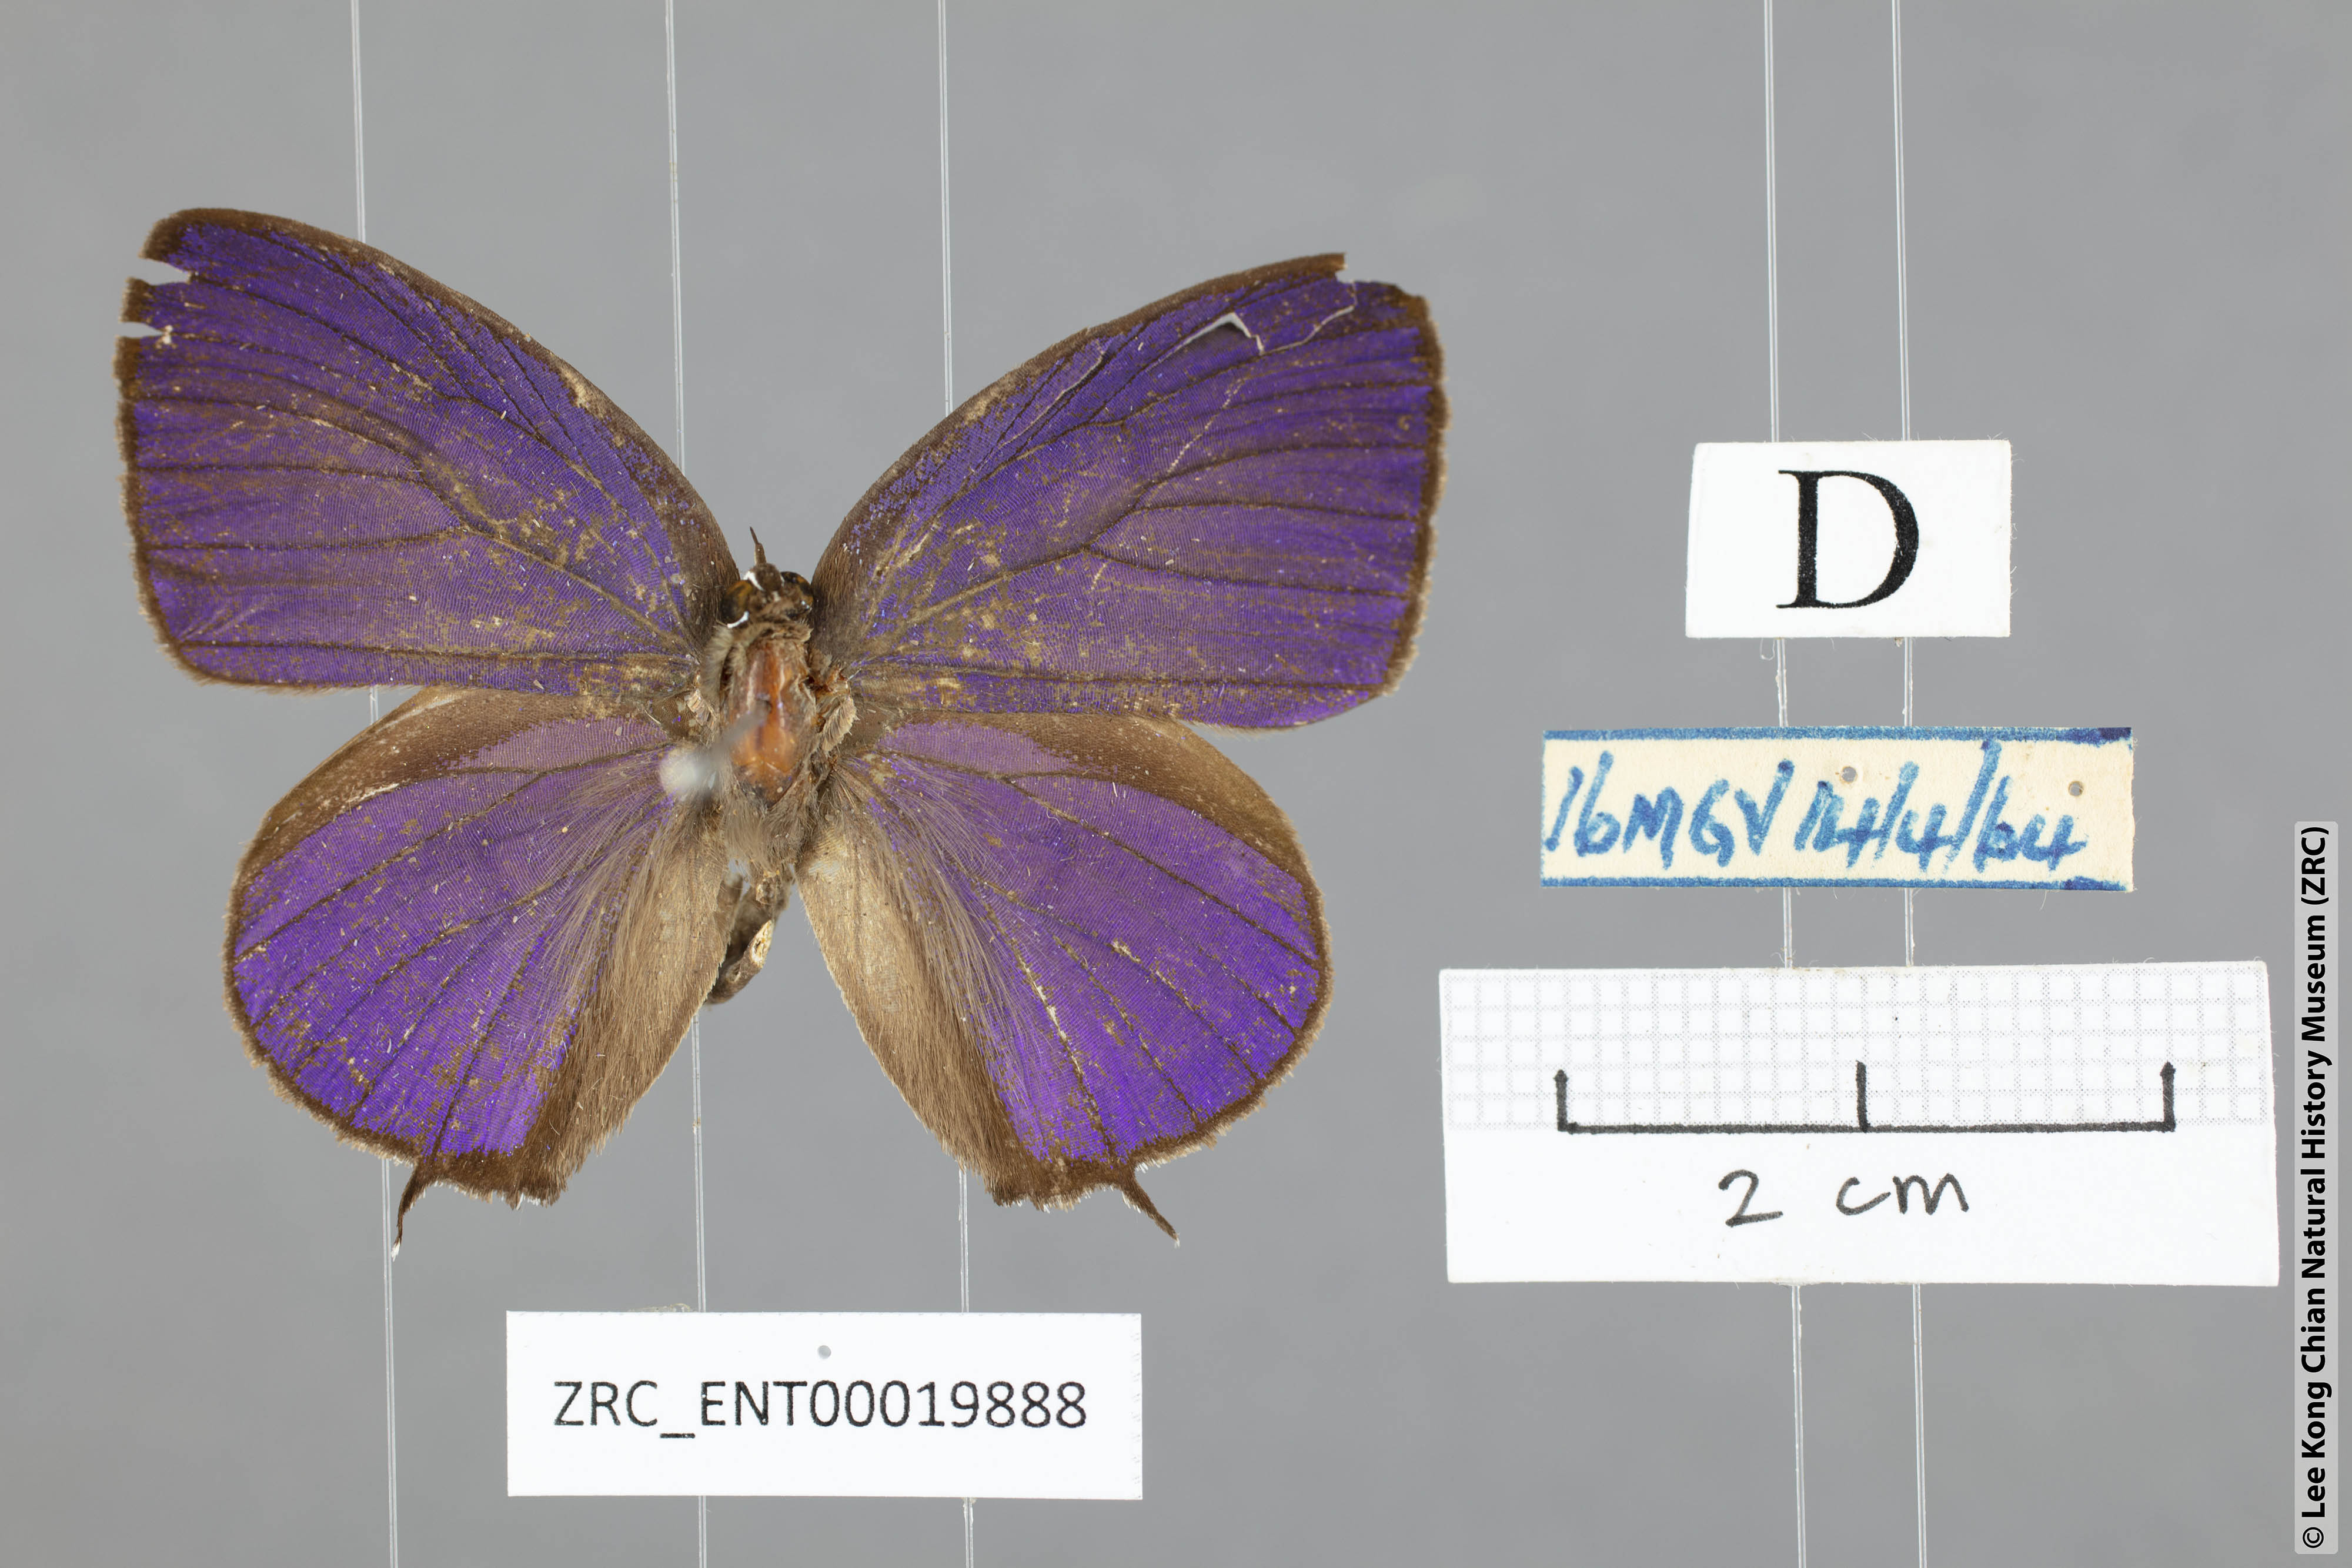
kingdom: Animalia
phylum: Arthropoda
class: Insecta
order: Lepidoptera
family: Lycaenidae
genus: Arhopala
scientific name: Arhopala
